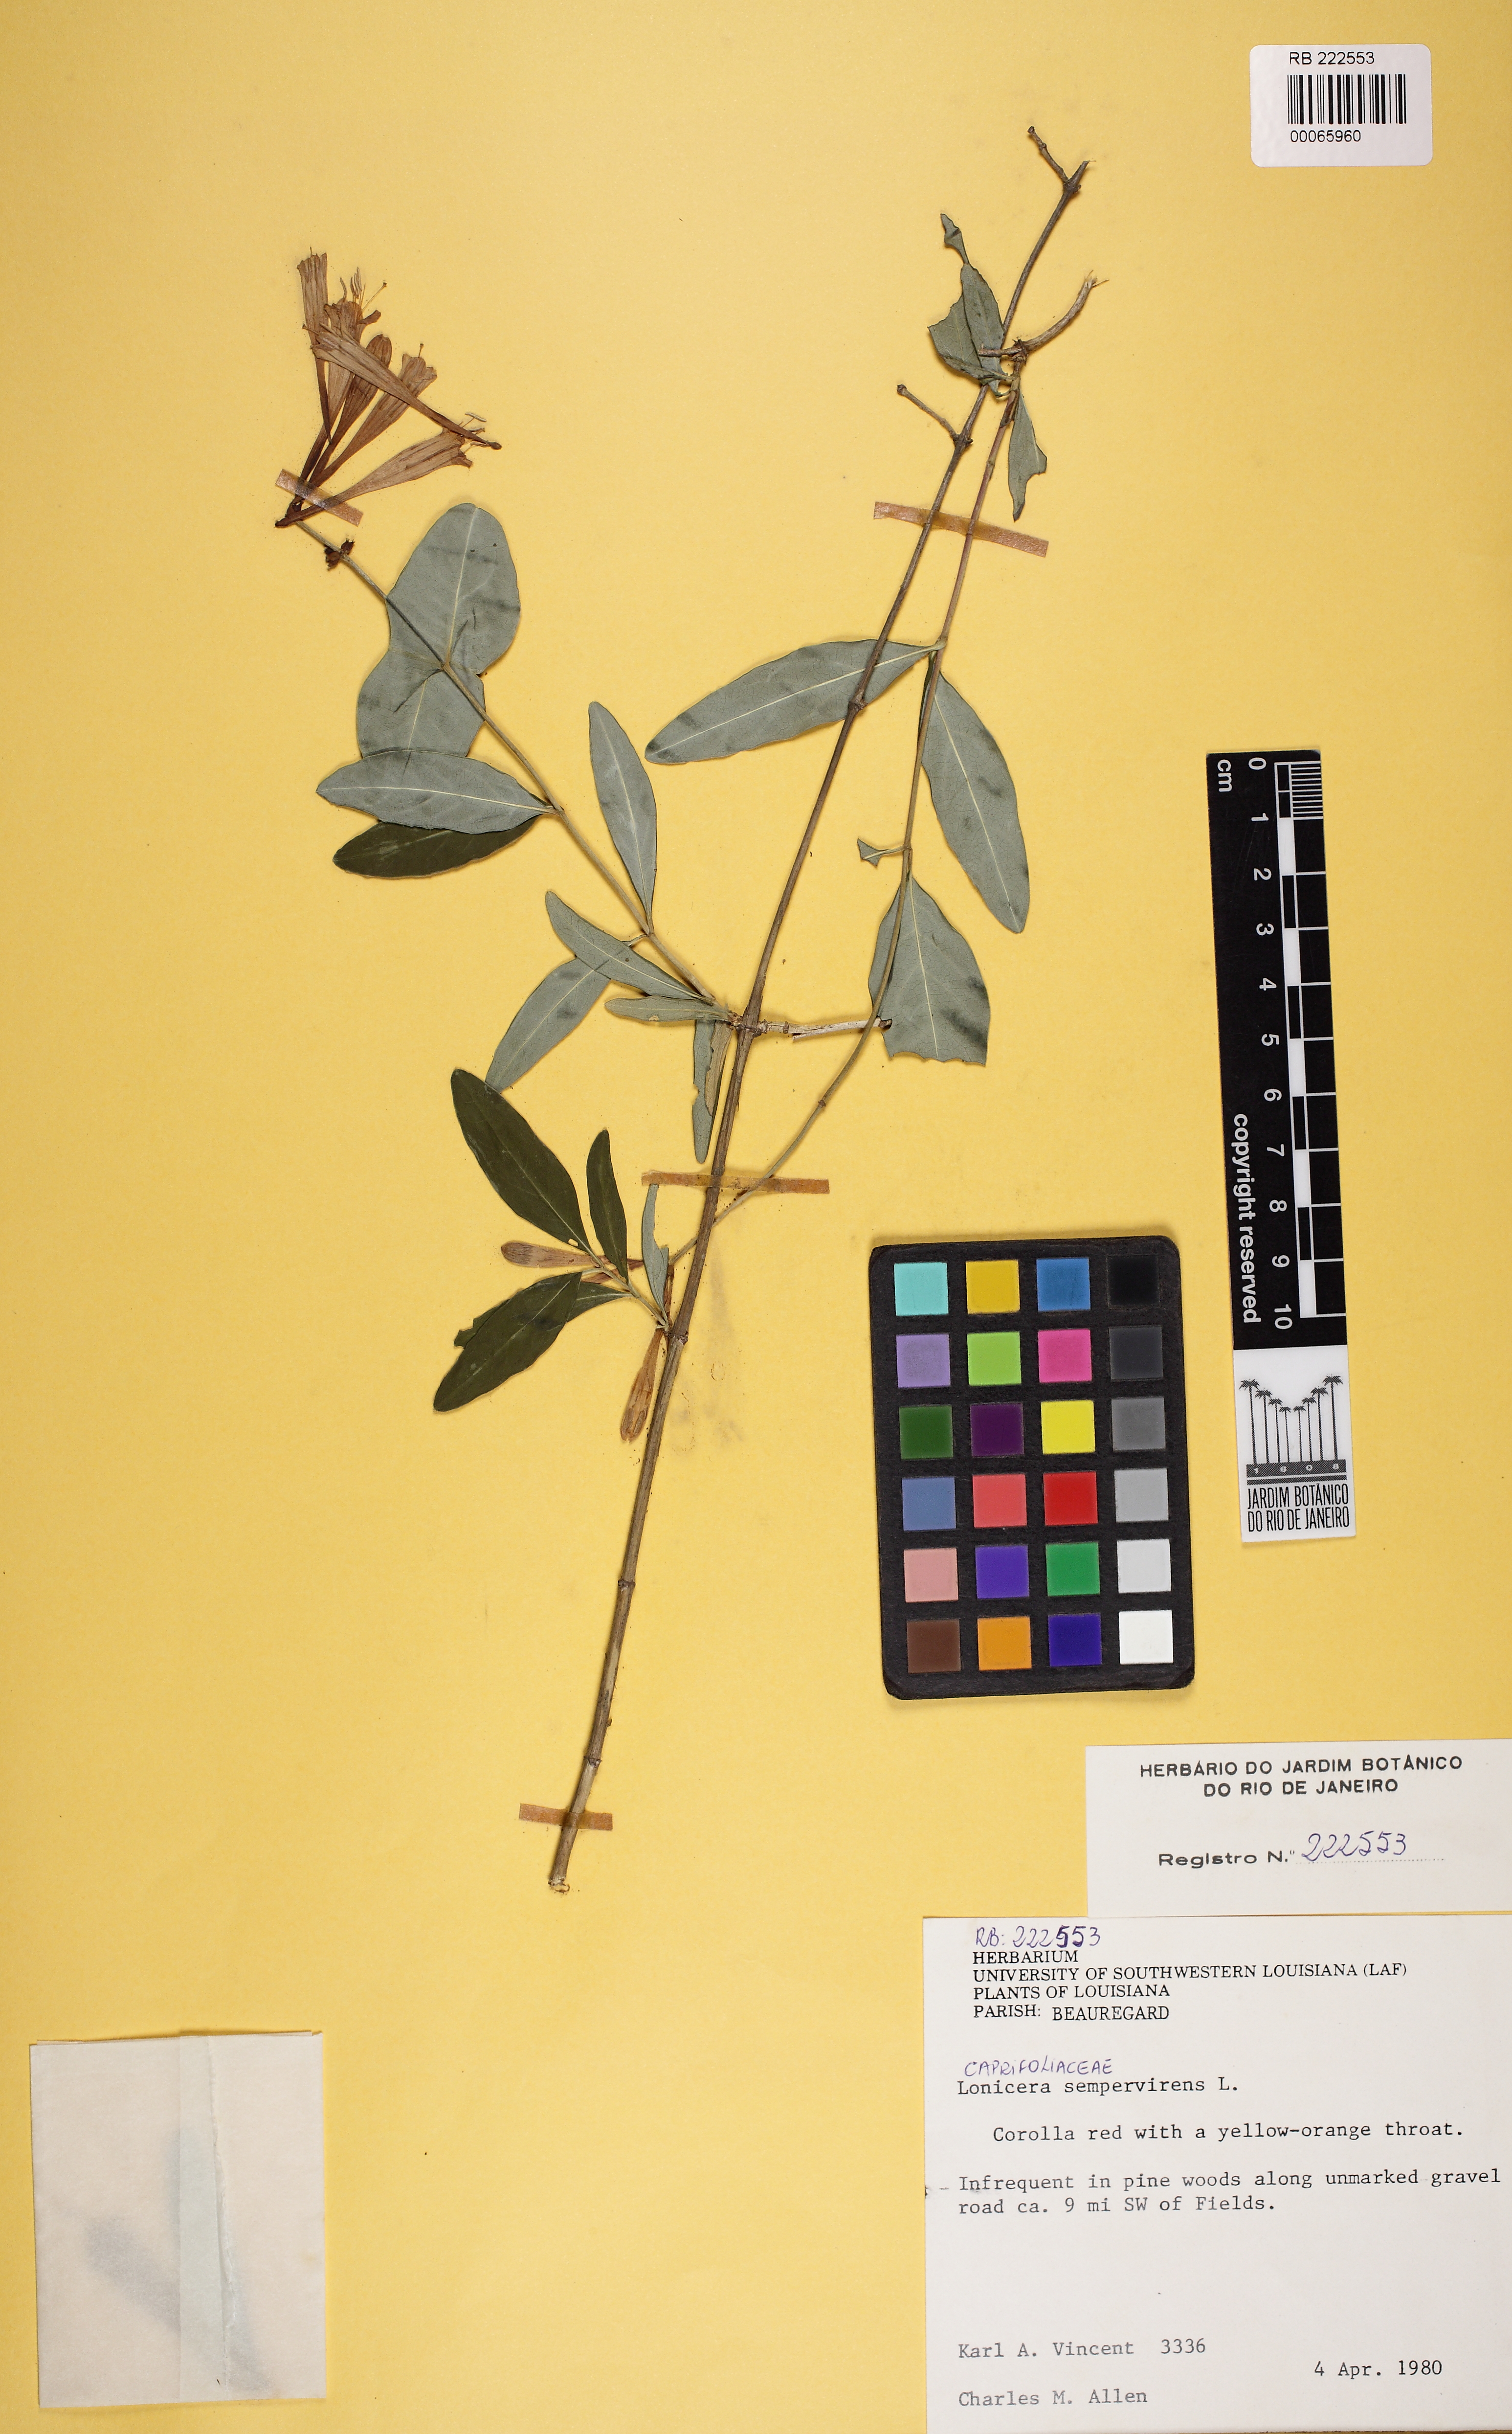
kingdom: Plantae
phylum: Tracheophyta
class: Magnoliopsida
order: Dipsacales
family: Caprifoliaceae
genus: Lonicera
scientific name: Lonicera sempervirens
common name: Coral honeysuckle
